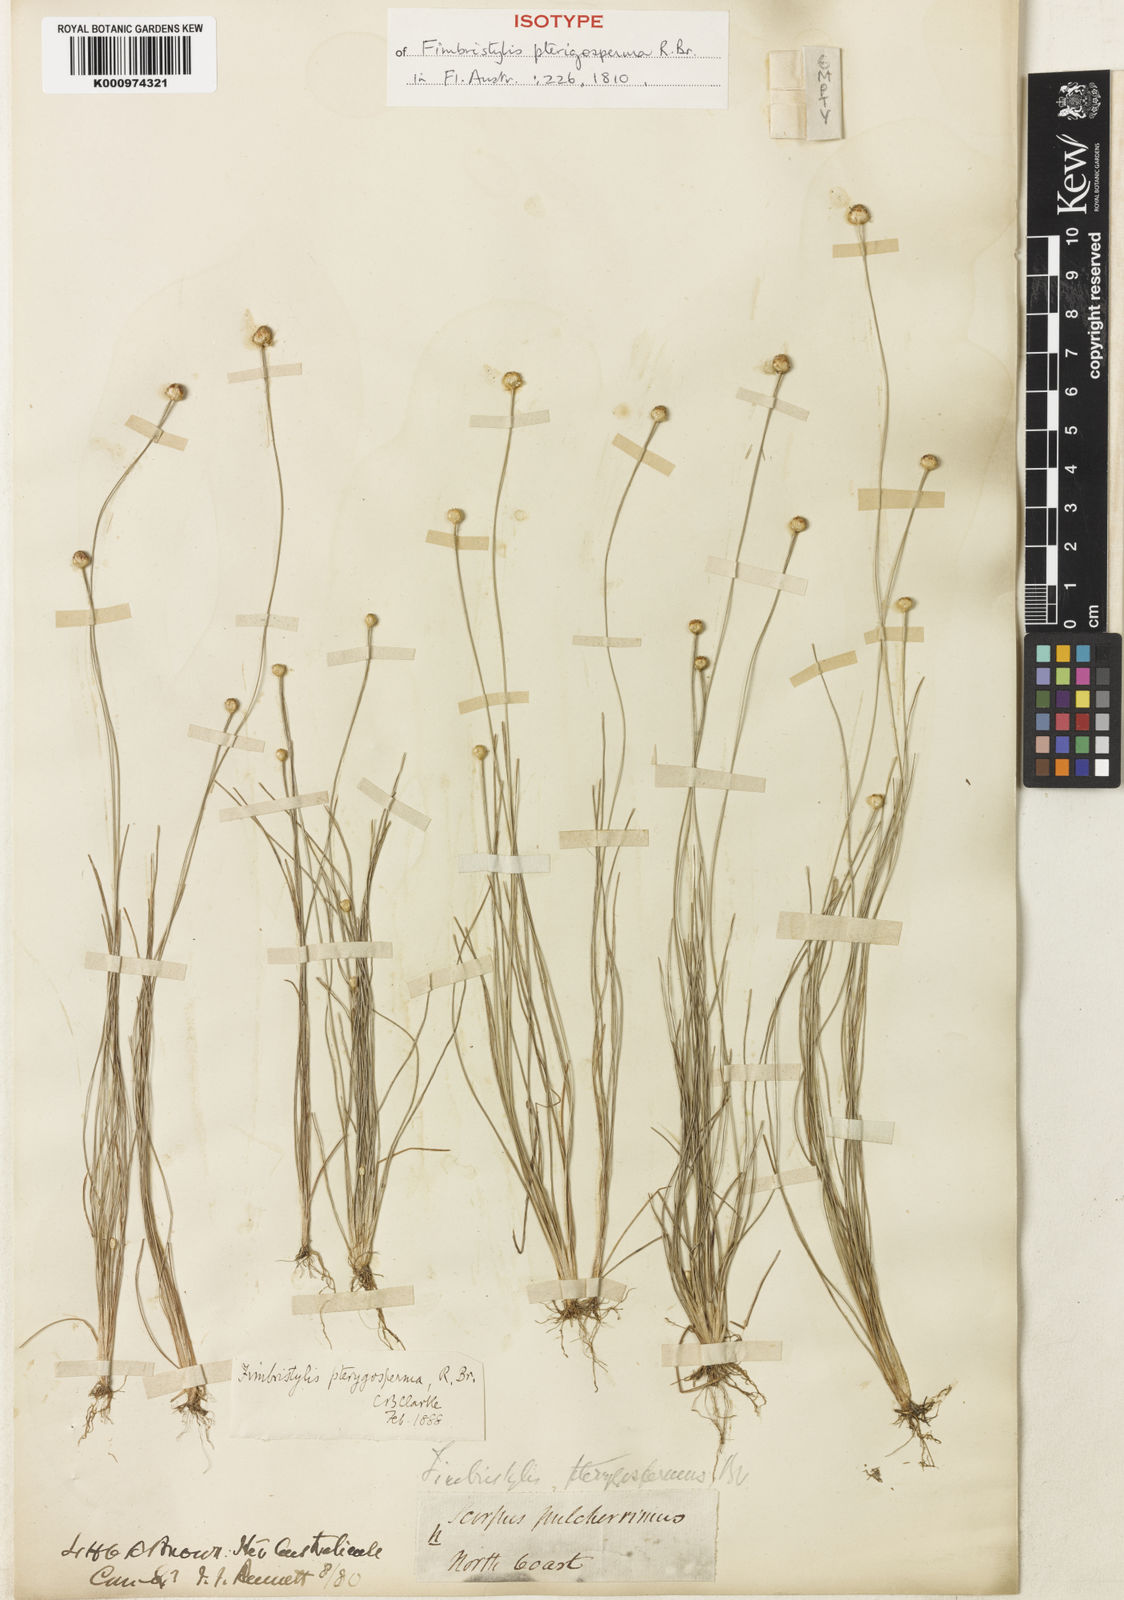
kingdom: Plantae
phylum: Tracheophyta
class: Liliopsida
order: Poales
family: Cyperaceae
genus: Fimbristylis
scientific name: Fimbristylis pterigosperma
